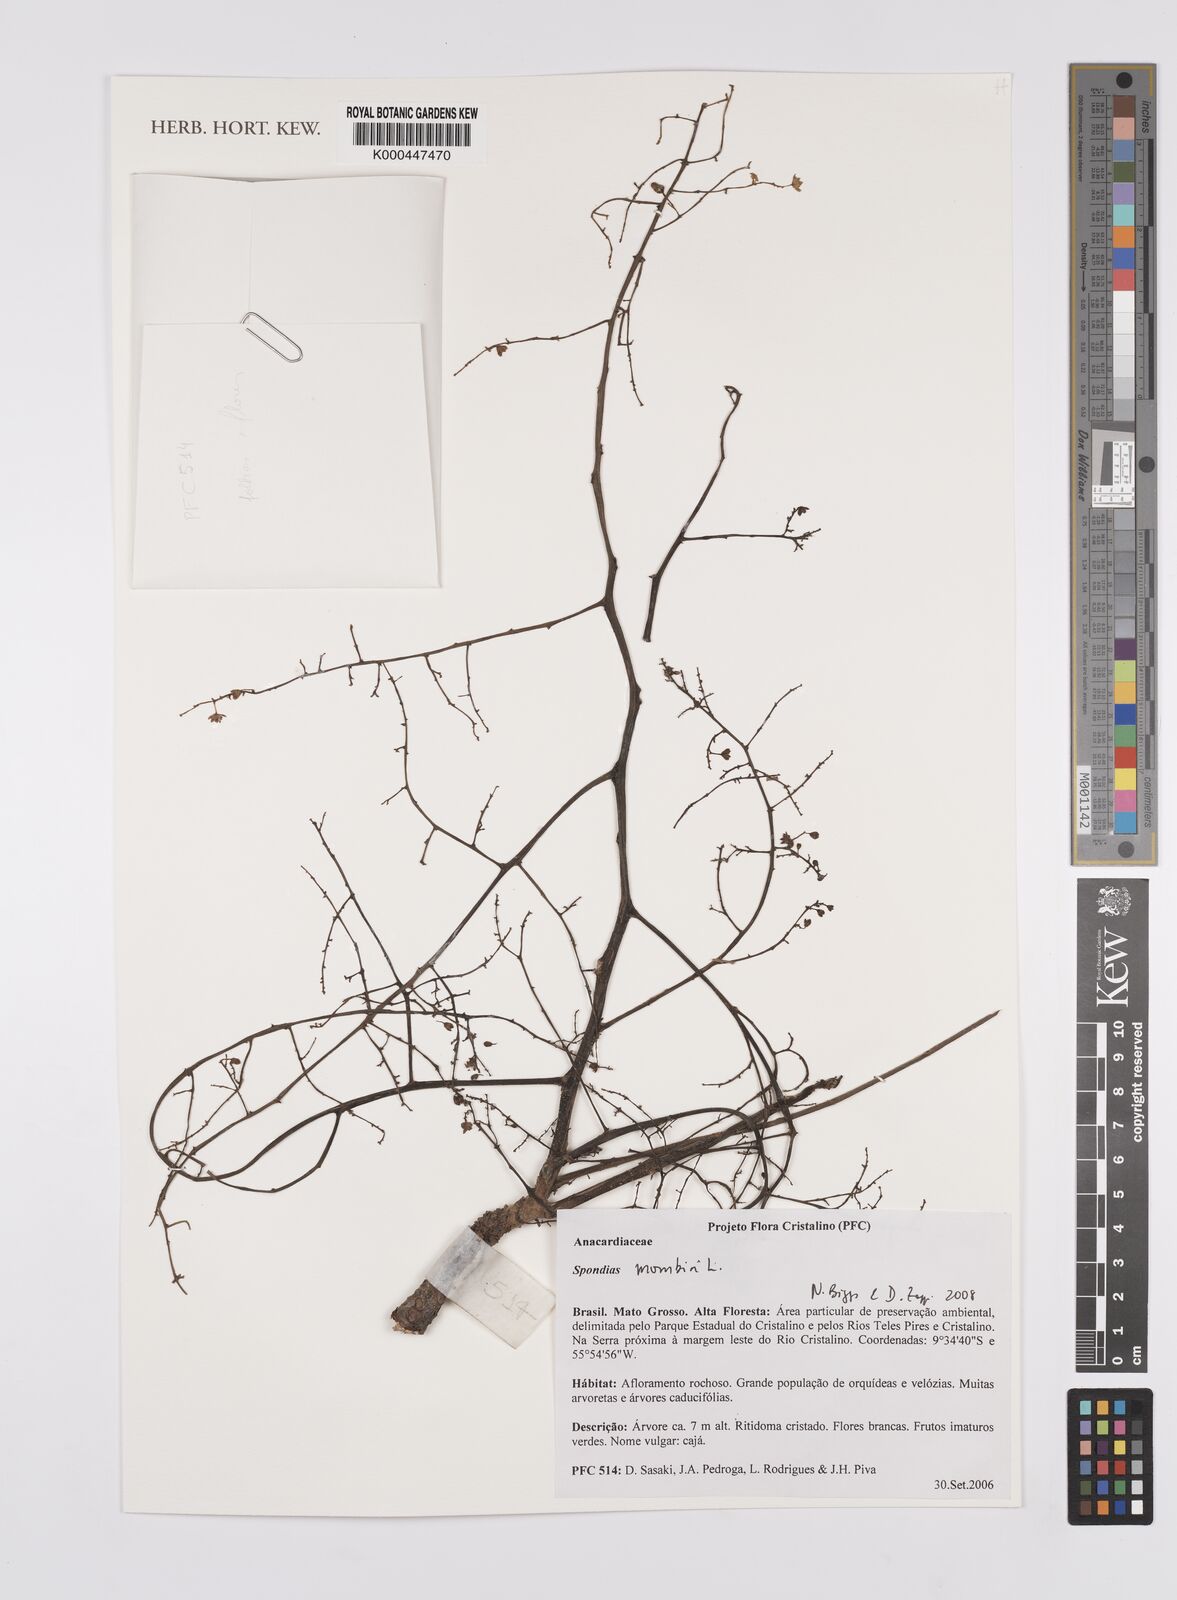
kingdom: Plantae
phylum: Tracheophyta
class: Magnoliopsida
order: Sapindales
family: Anacardiaceae
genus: Spondias
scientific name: Spondias mombin
